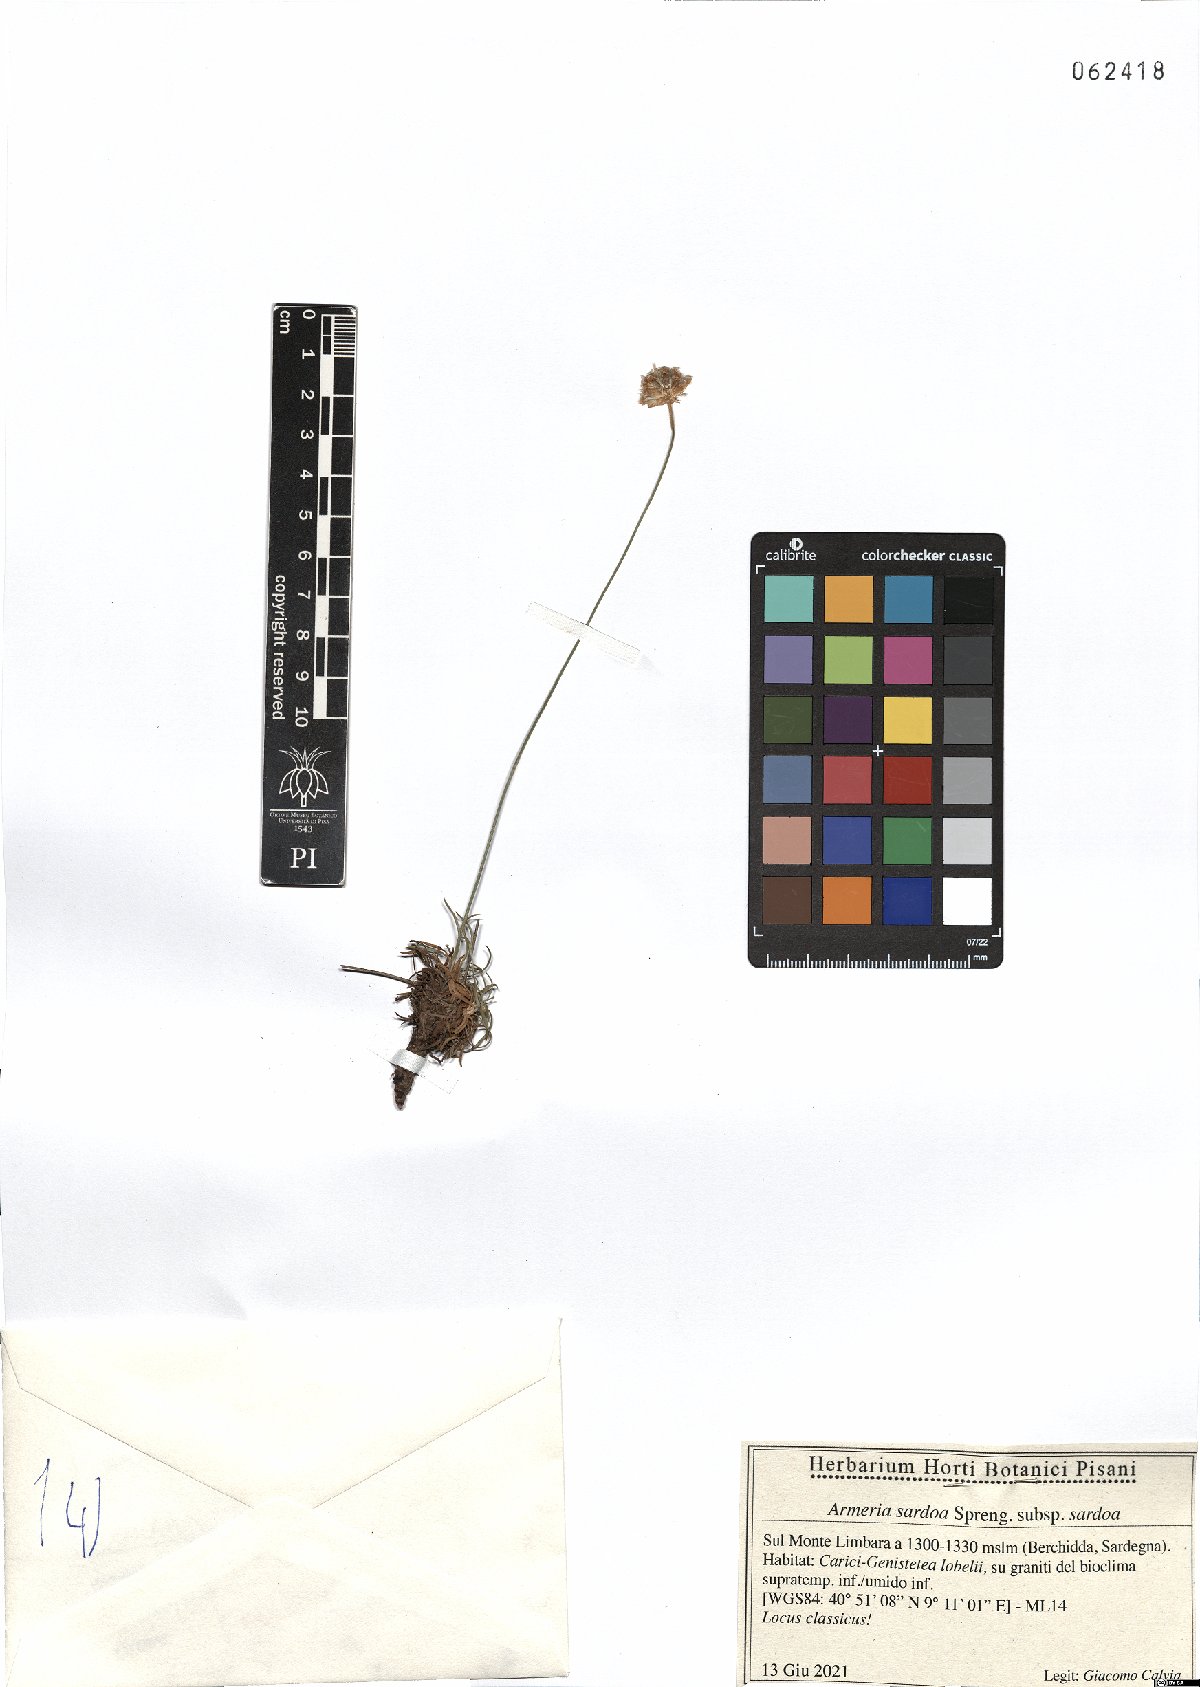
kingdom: Plantae
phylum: Tracheophyta
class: Magnoliopsida
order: Caryophyllales
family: Plumbaginaceae
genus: Armeria
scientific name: Armeria sardoa
